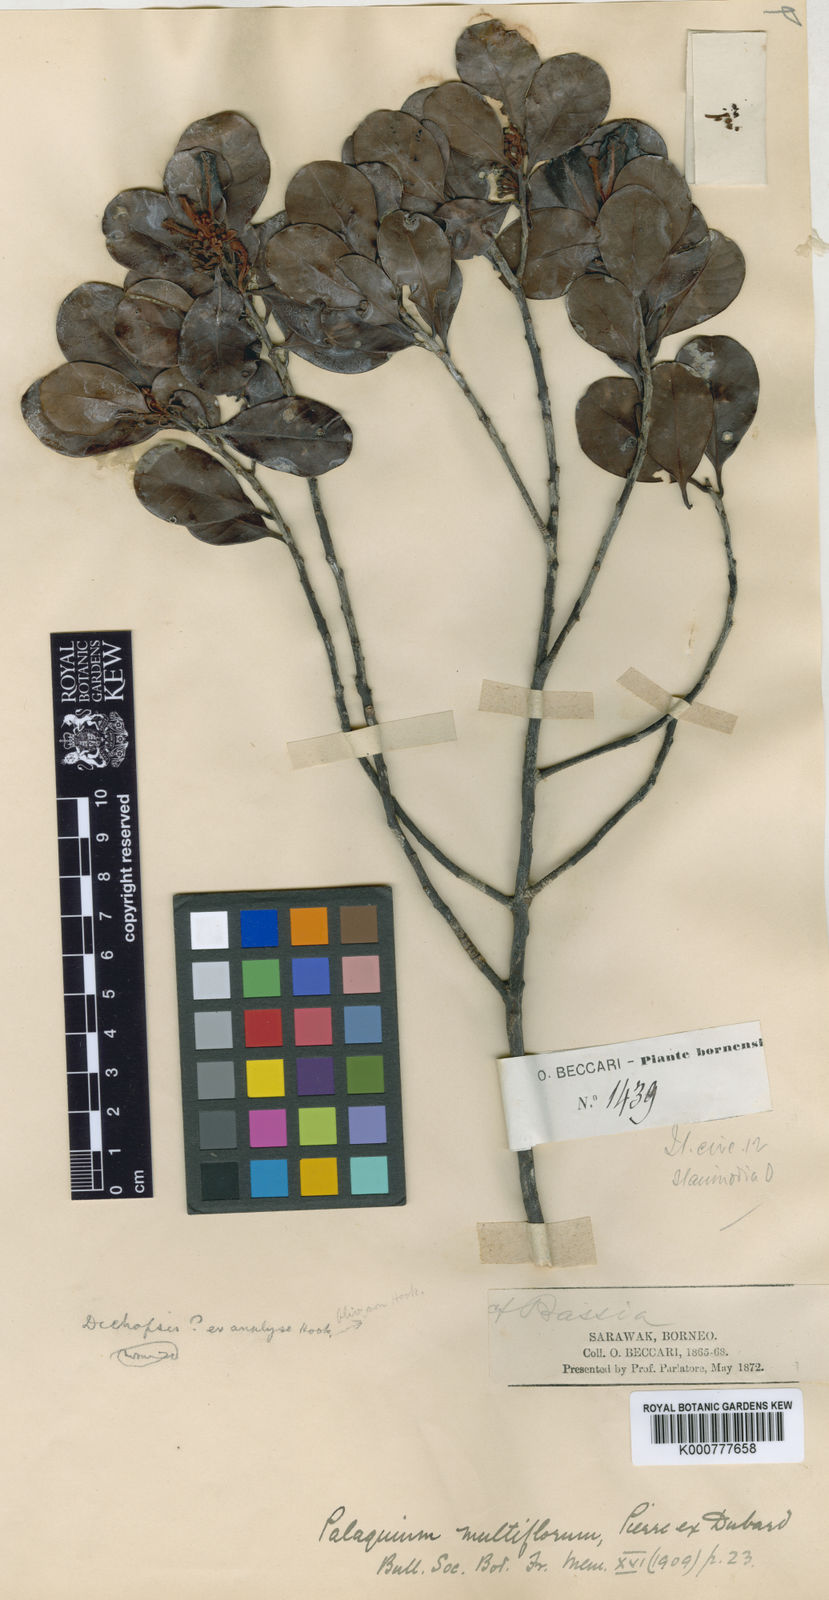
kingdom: Plantae
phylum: Tracheophyta
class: Magnoliopsida
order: Ericales
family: Sapotaceae
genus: Palaquium
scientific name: Palaquium multiflorum
